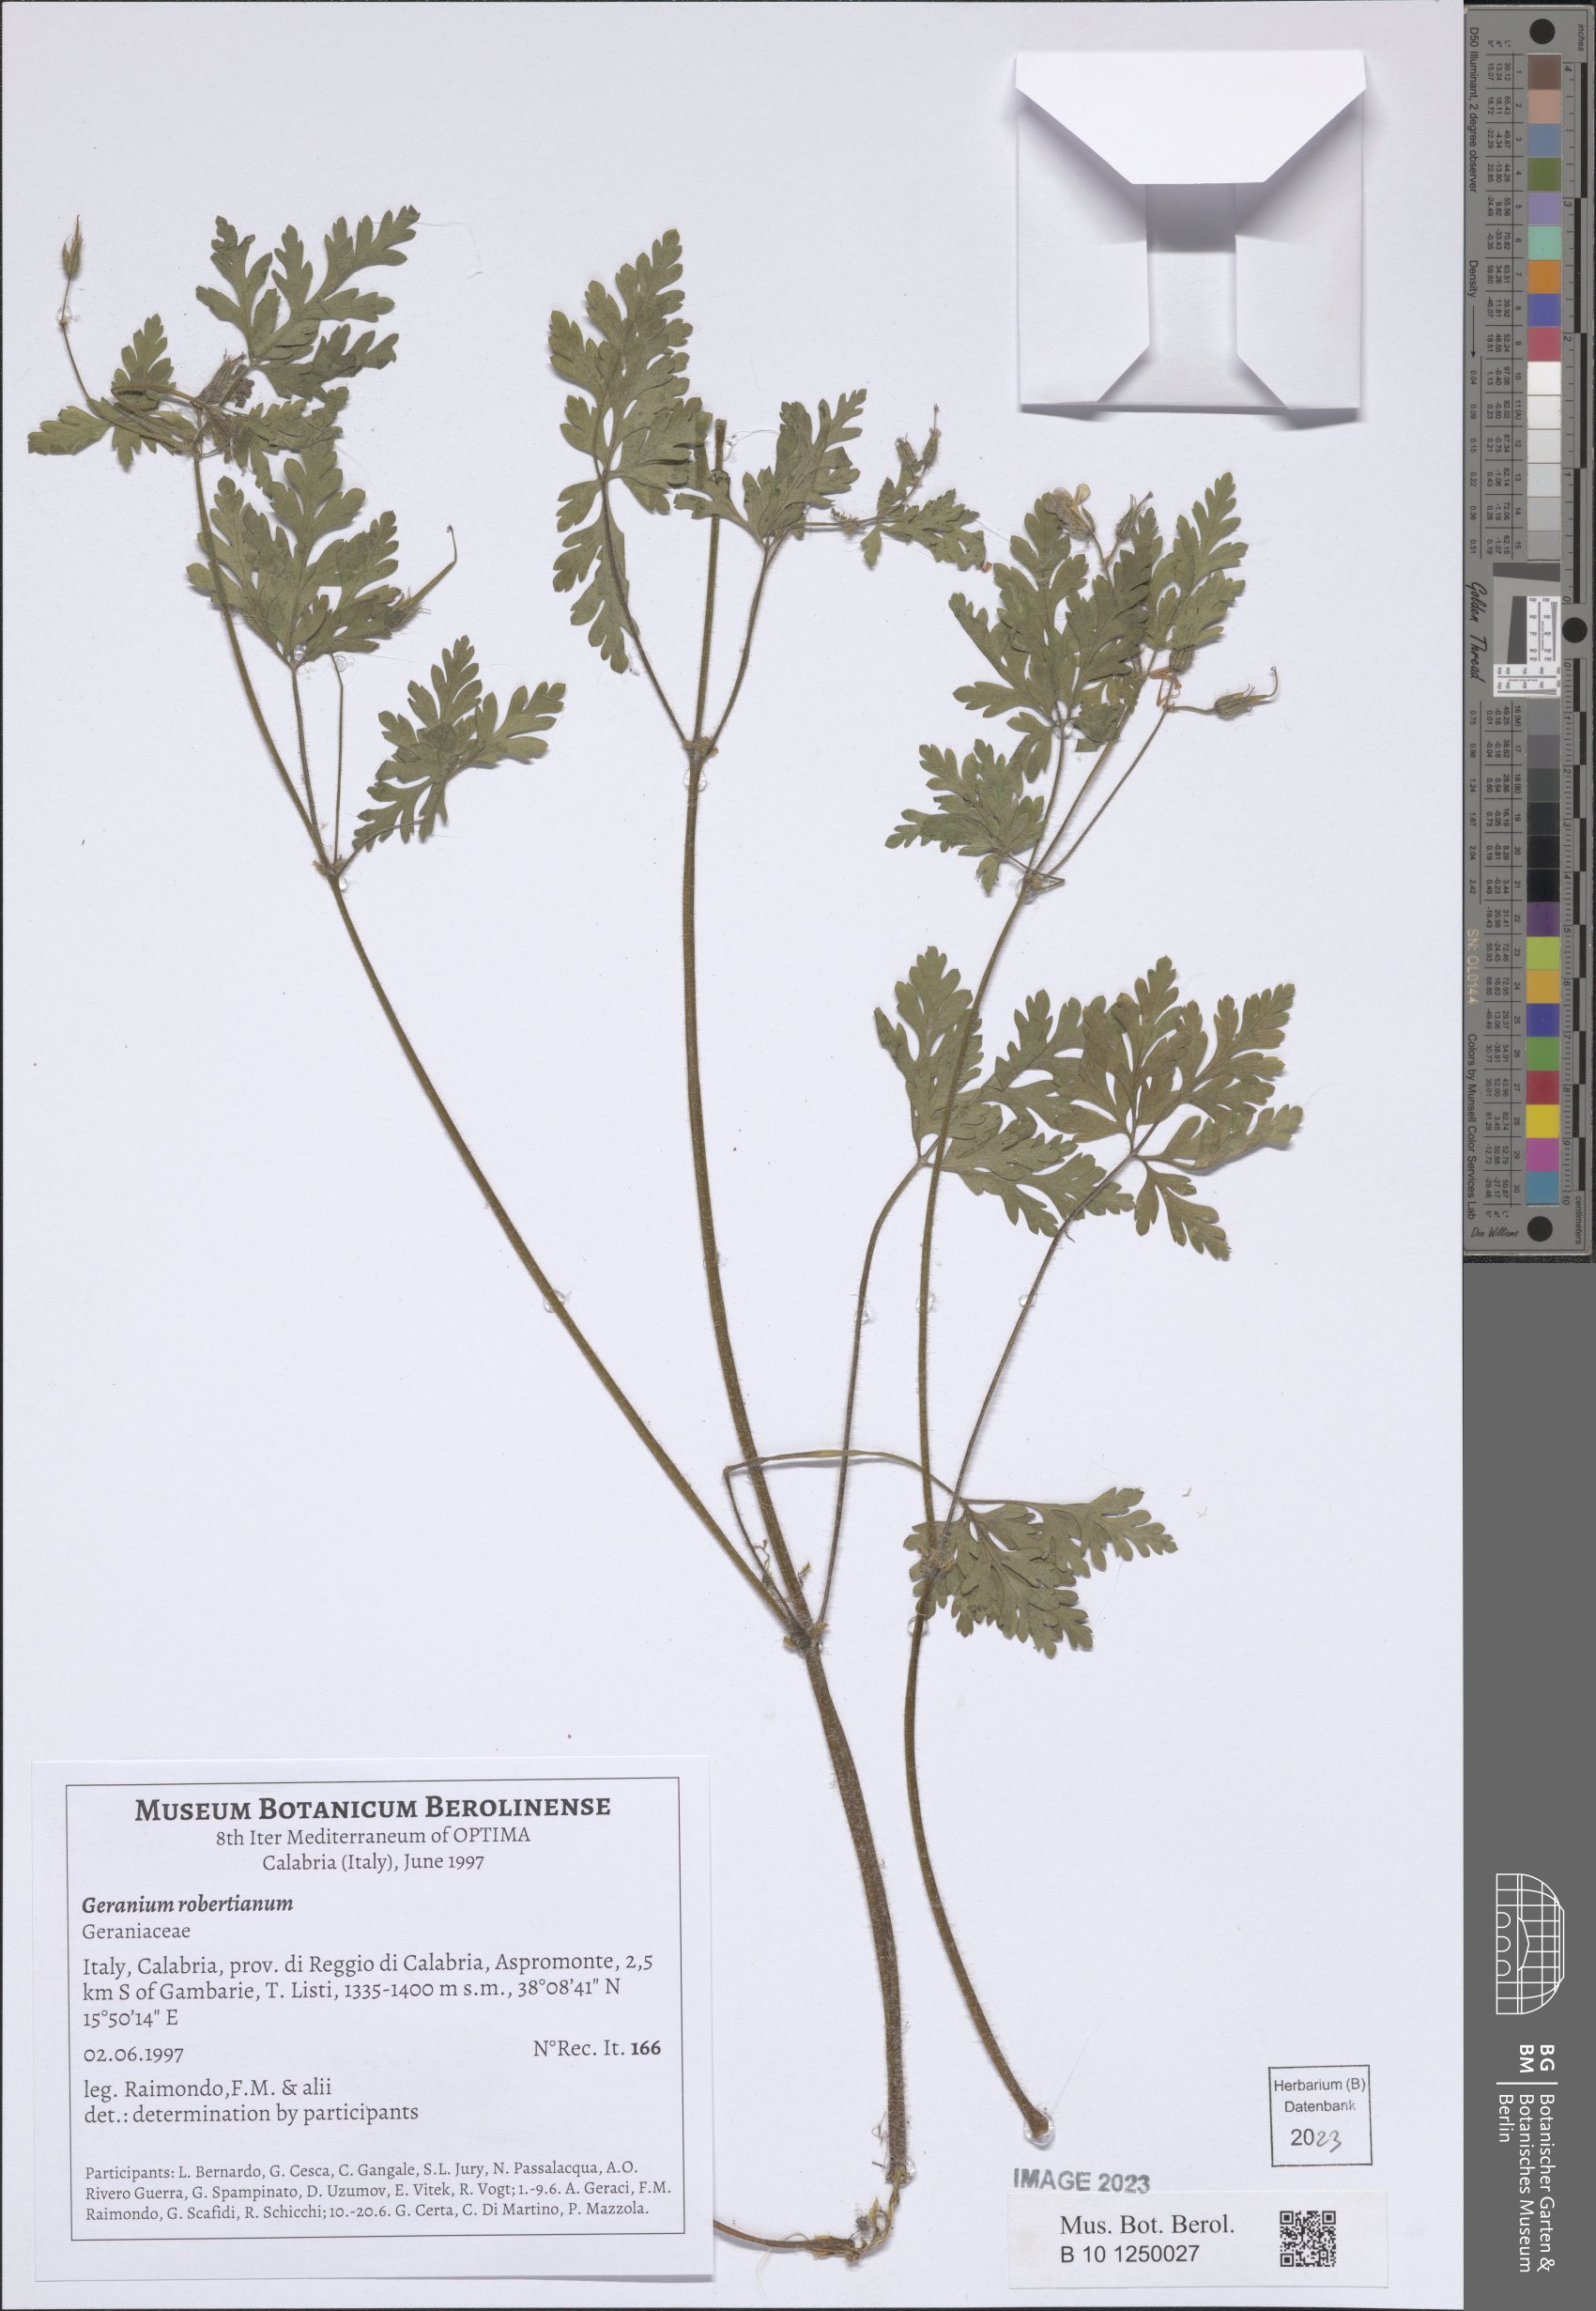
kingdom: Plantae
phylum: Tracheophyta
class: Magnoliopsida
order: Geraniales
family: Geraniaceae
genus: Geranium
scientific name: Geranium robertianum
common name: Herb-robert
